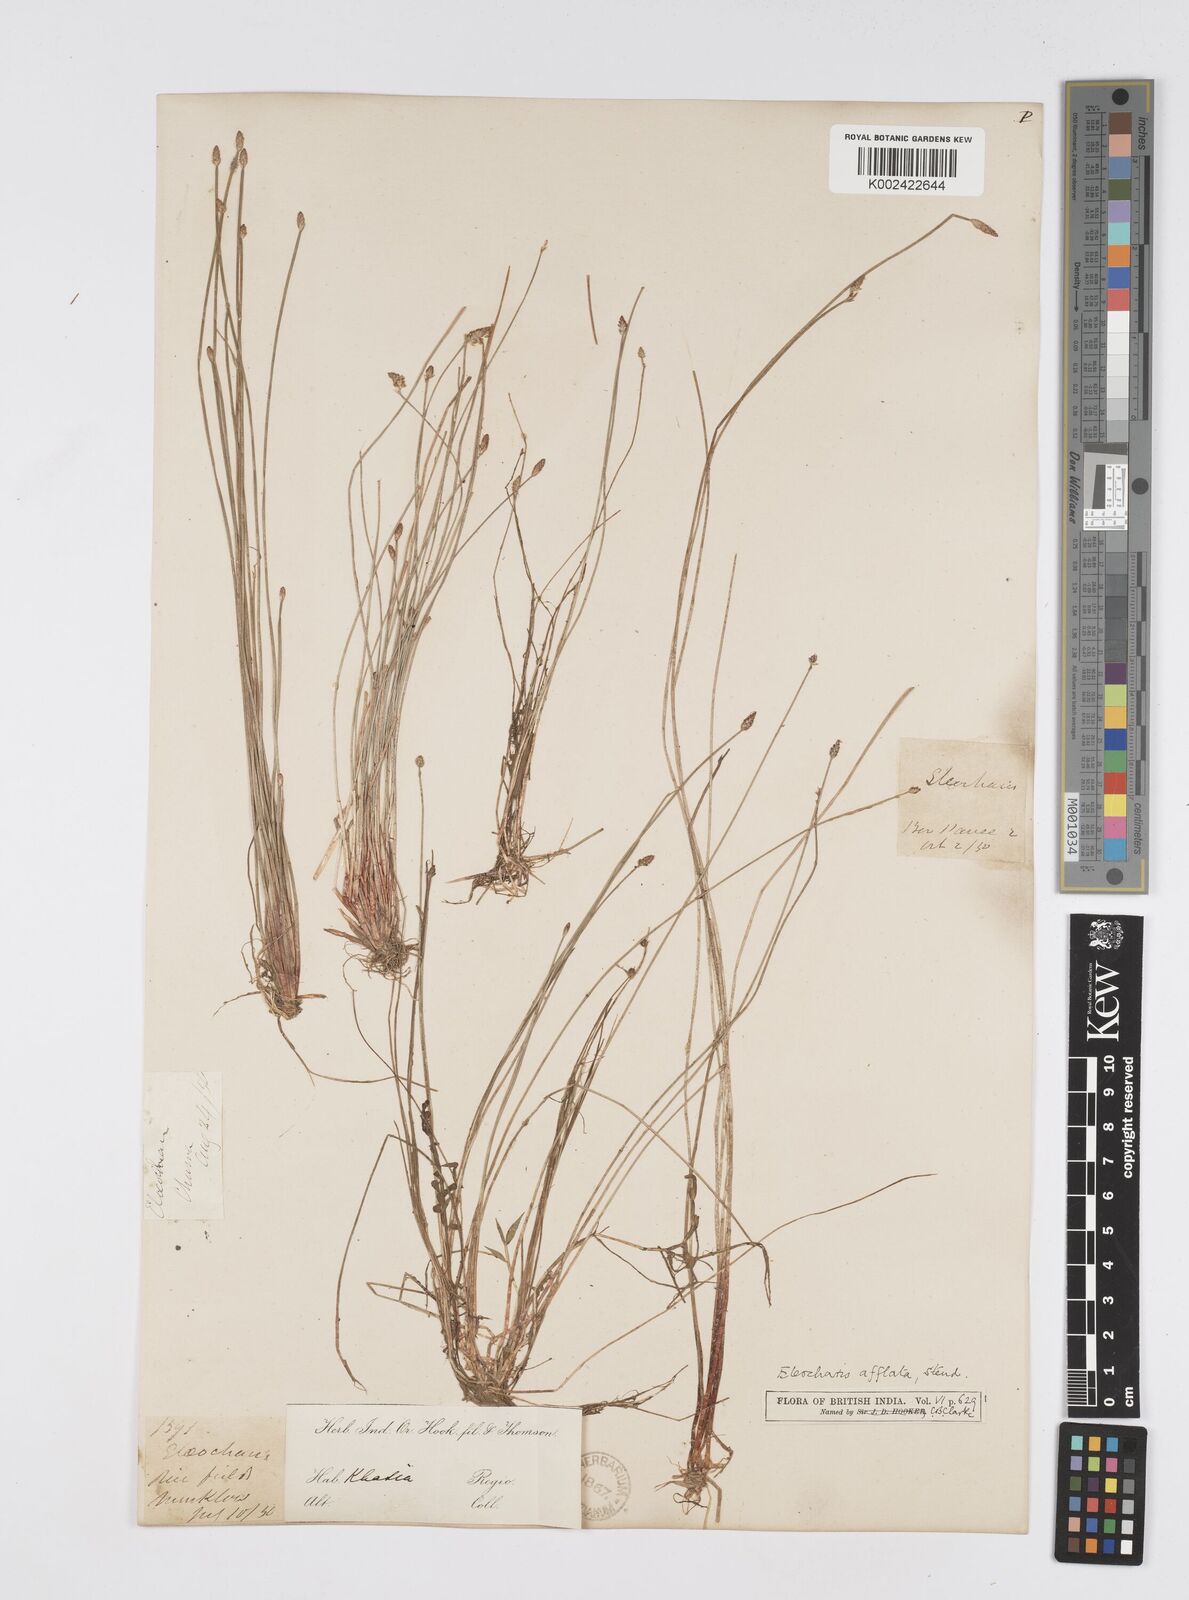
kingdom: Plantae
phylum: Tracheophyta
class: Liliopsida
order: Poales
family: Cyperaceae
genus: Eleocharis
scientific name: Eleocharis pellucida
